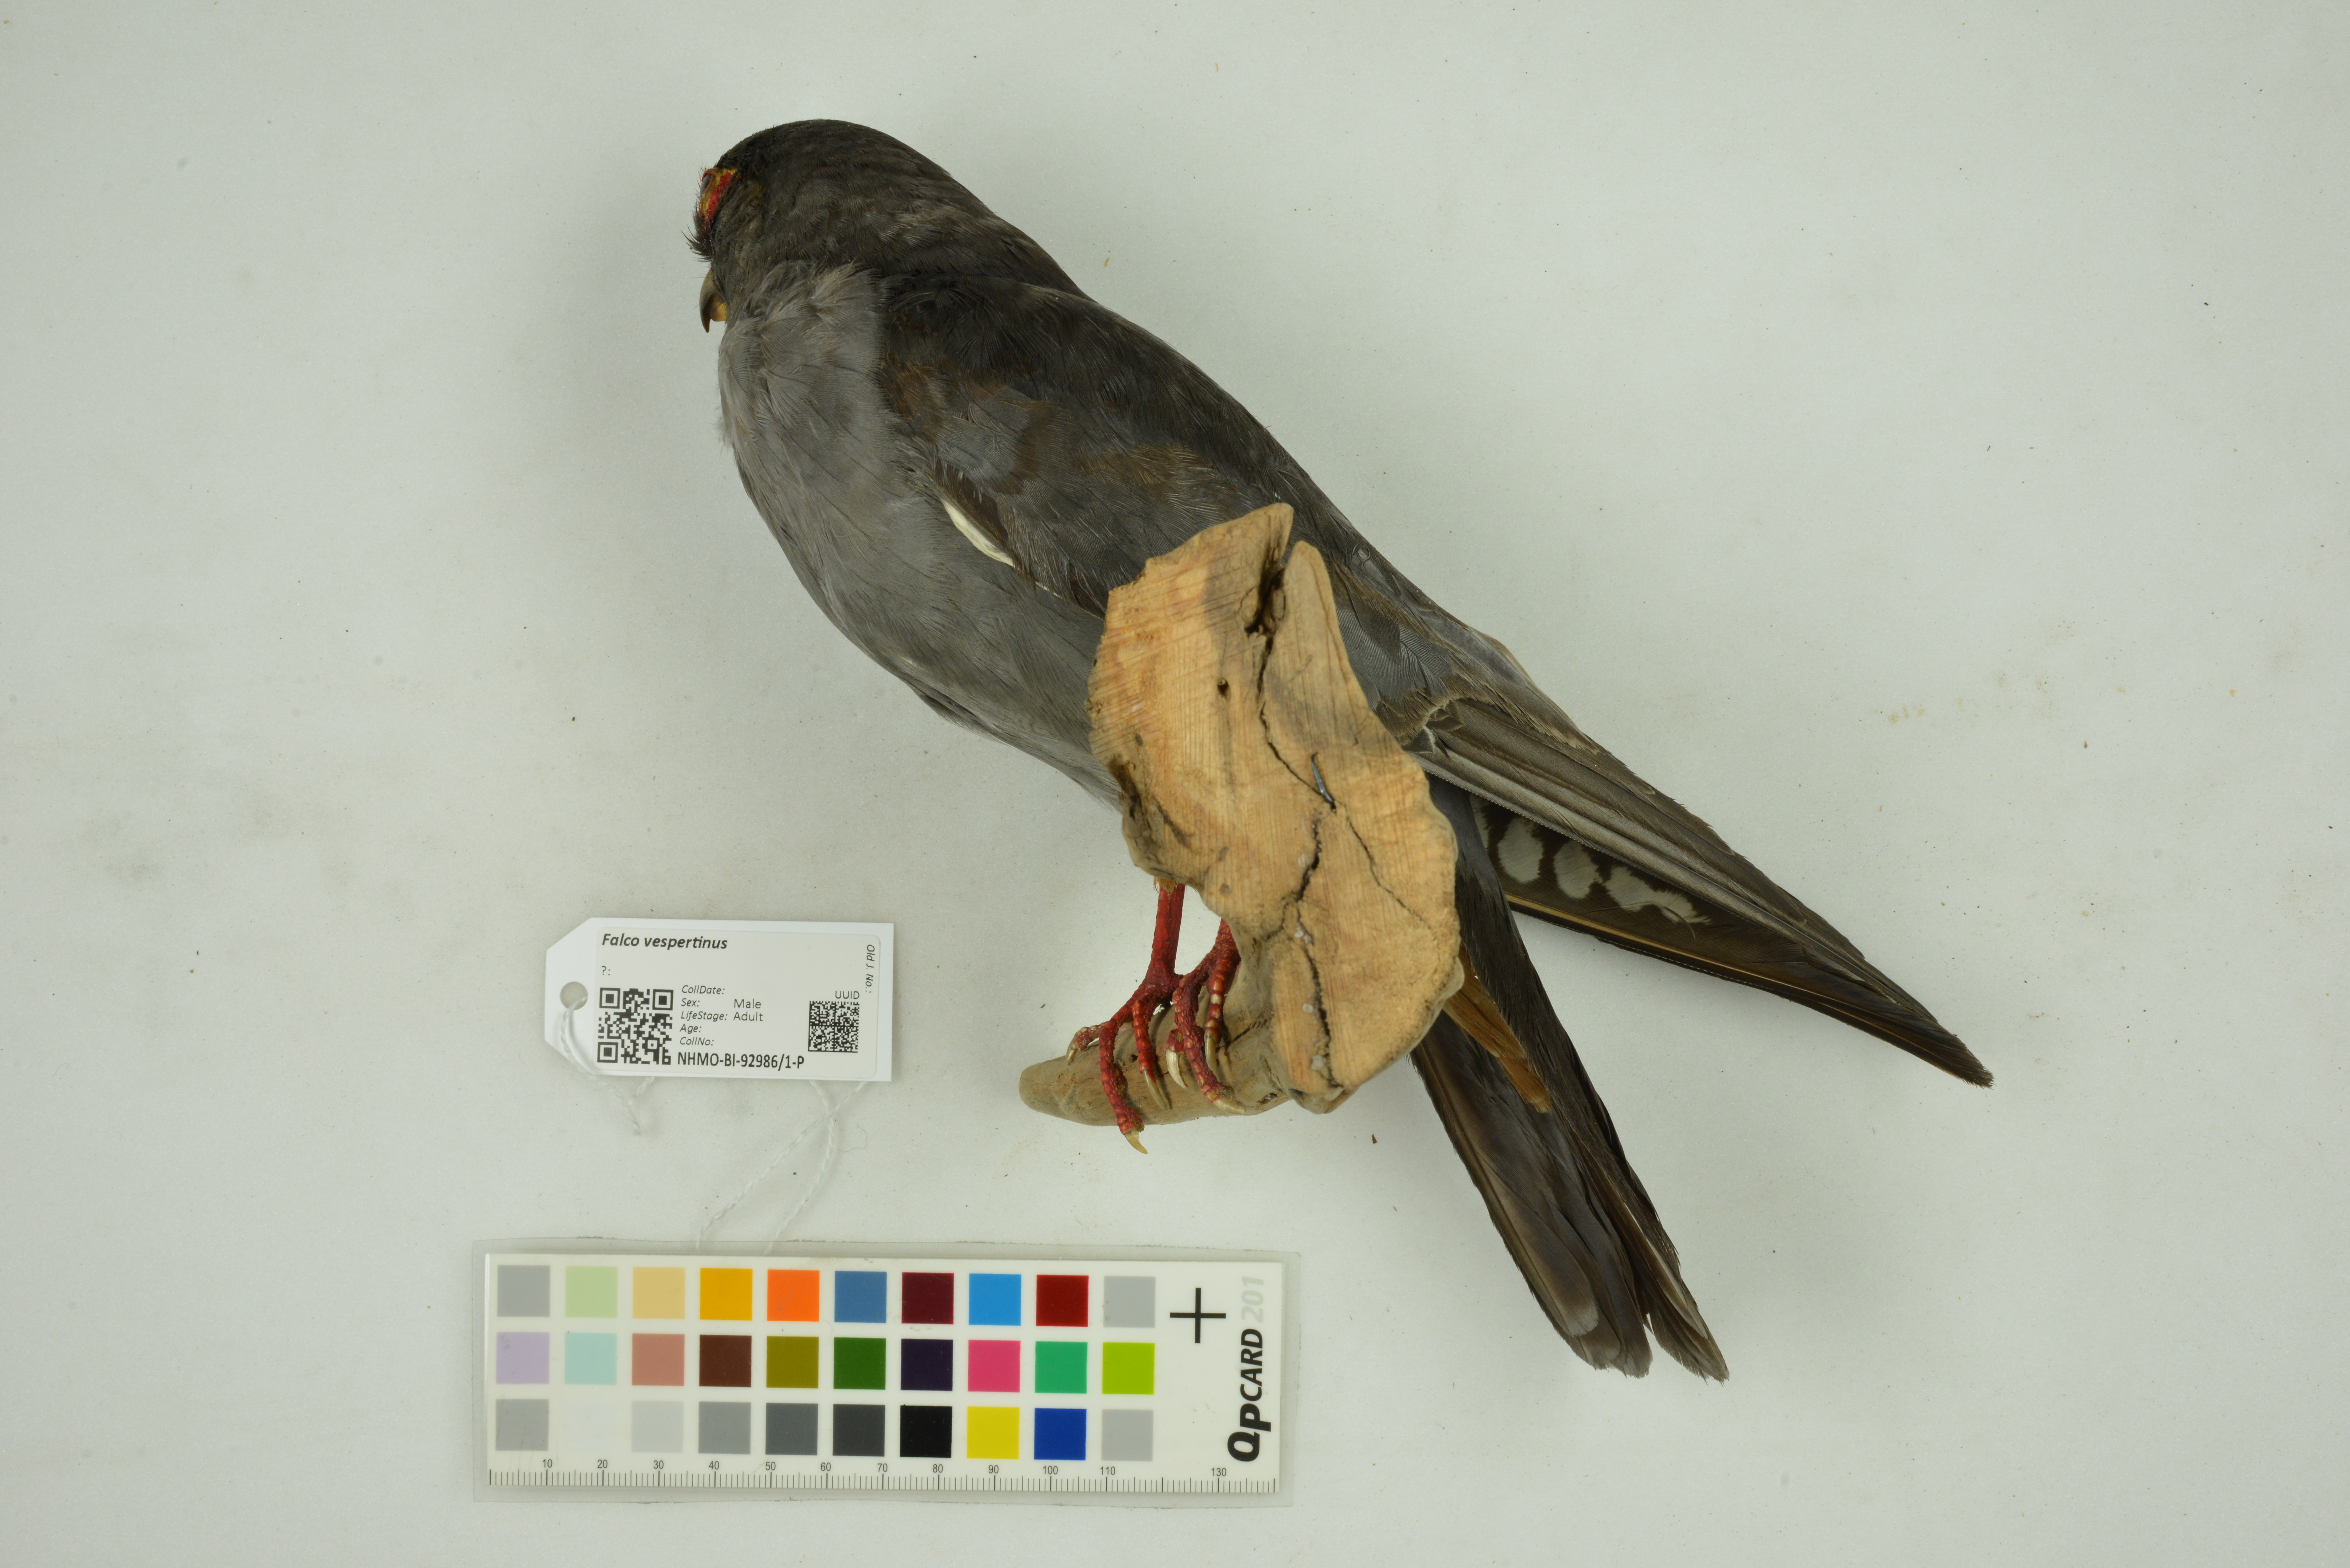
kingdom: Animalia
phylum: Chordata
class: Aves
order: Falconiformes
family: Falconidae
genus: Falco
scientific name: Falco vespertinus
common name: Red-footed falcon
